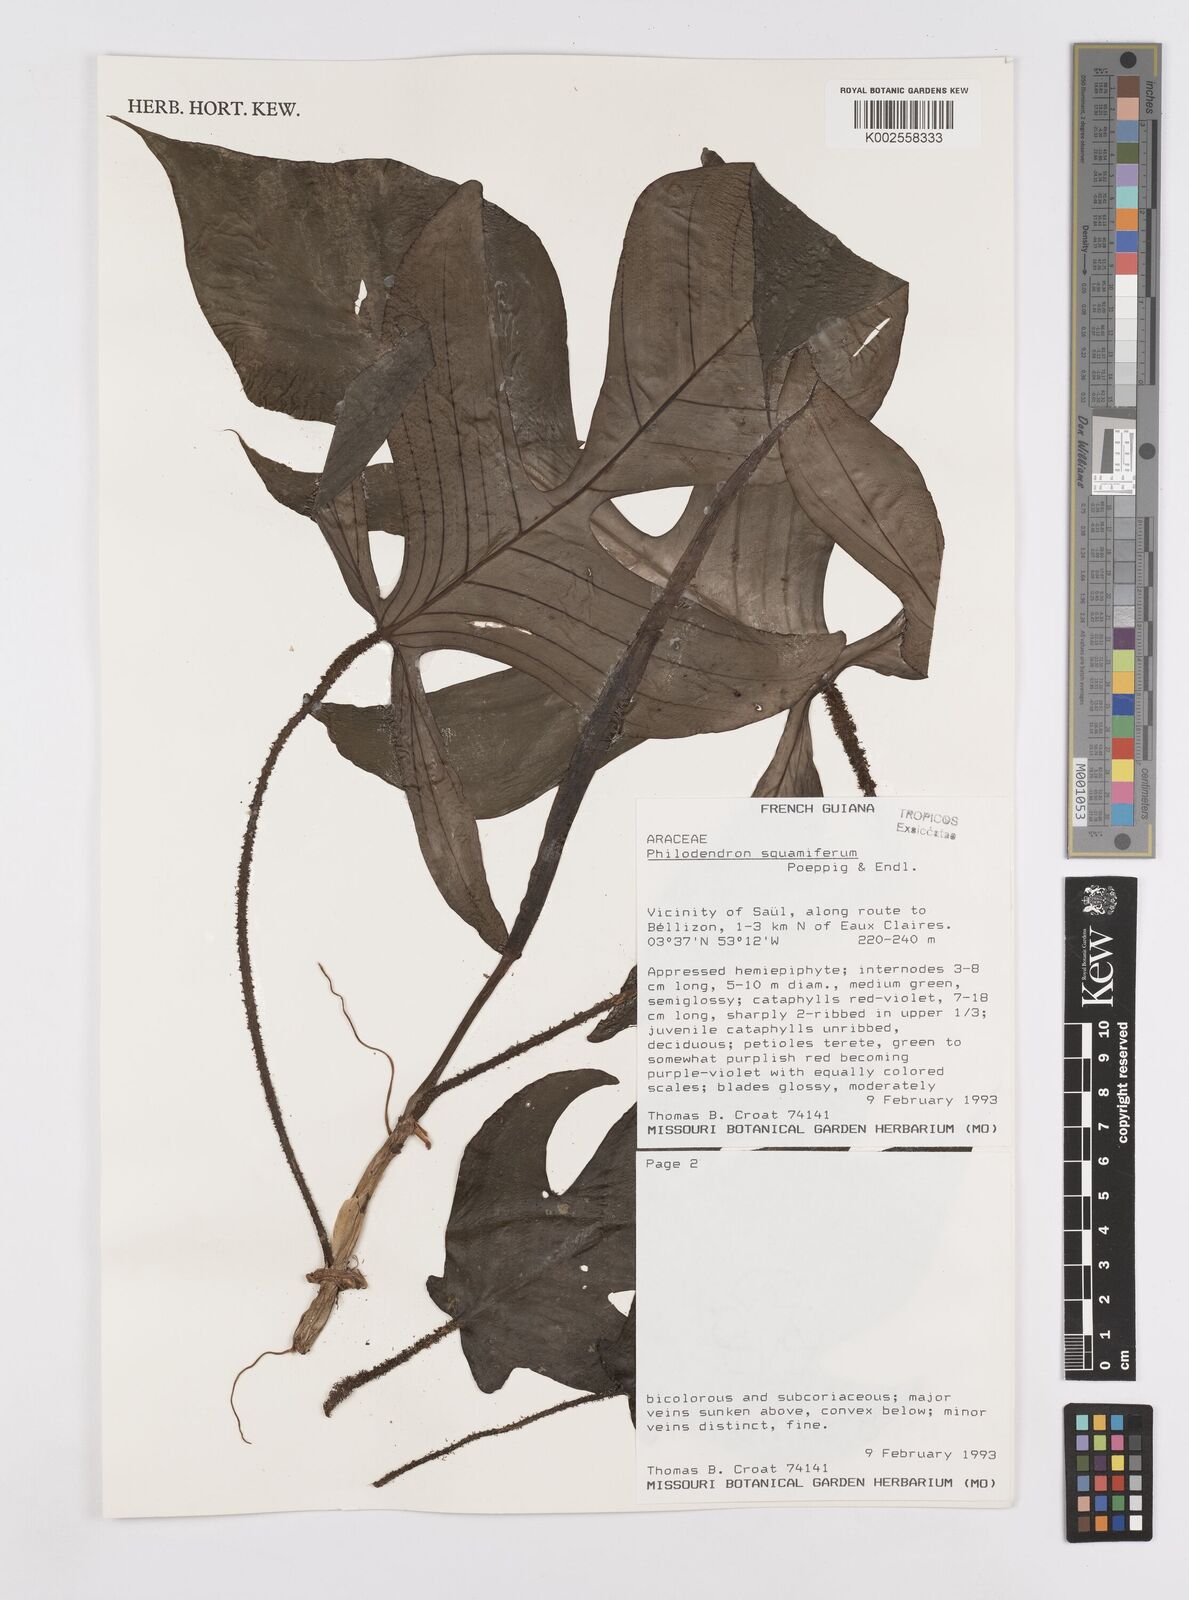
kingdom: Plantae
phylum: Tracheophyta
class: Liliopsida
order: Alismatales
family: Araceae
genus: Philodendron
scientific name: Philodendron squamiferum
